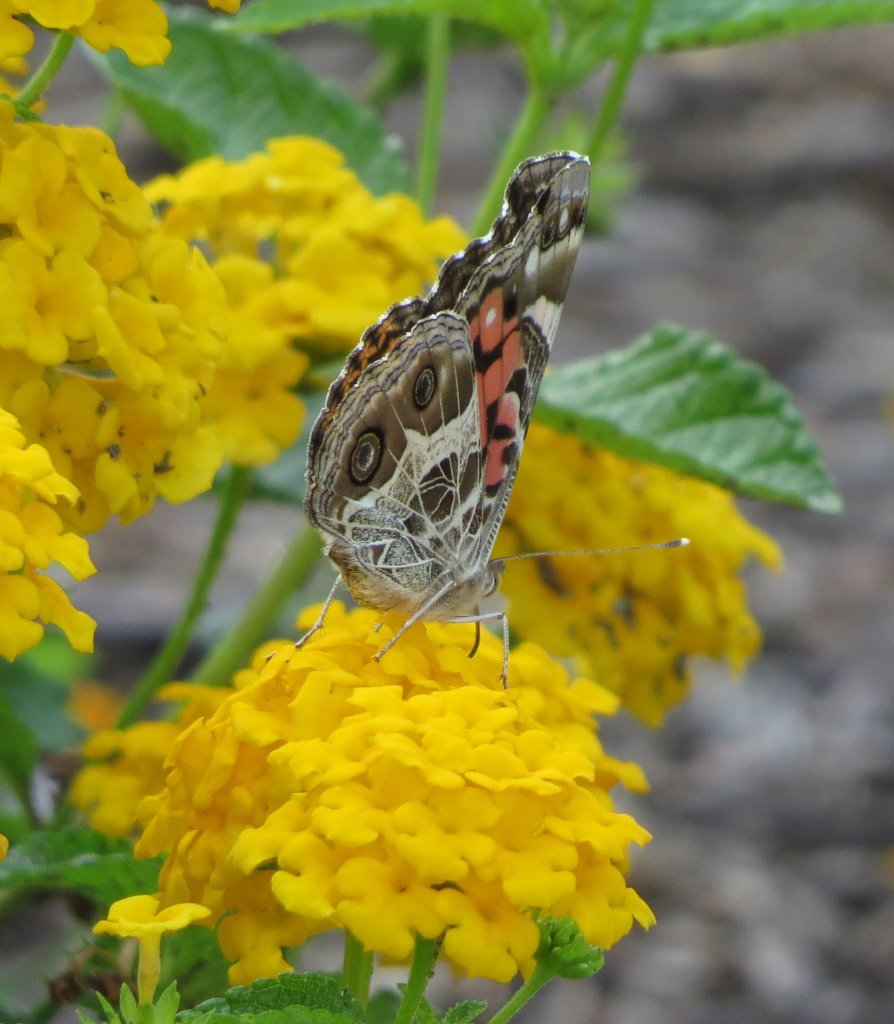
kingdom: Animalia
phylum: Arthropoda
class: Insecta
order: Lepidoptera
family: Nymphalidae
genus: Vanessa
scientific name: Vanessa virginiensis
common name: American Lady
